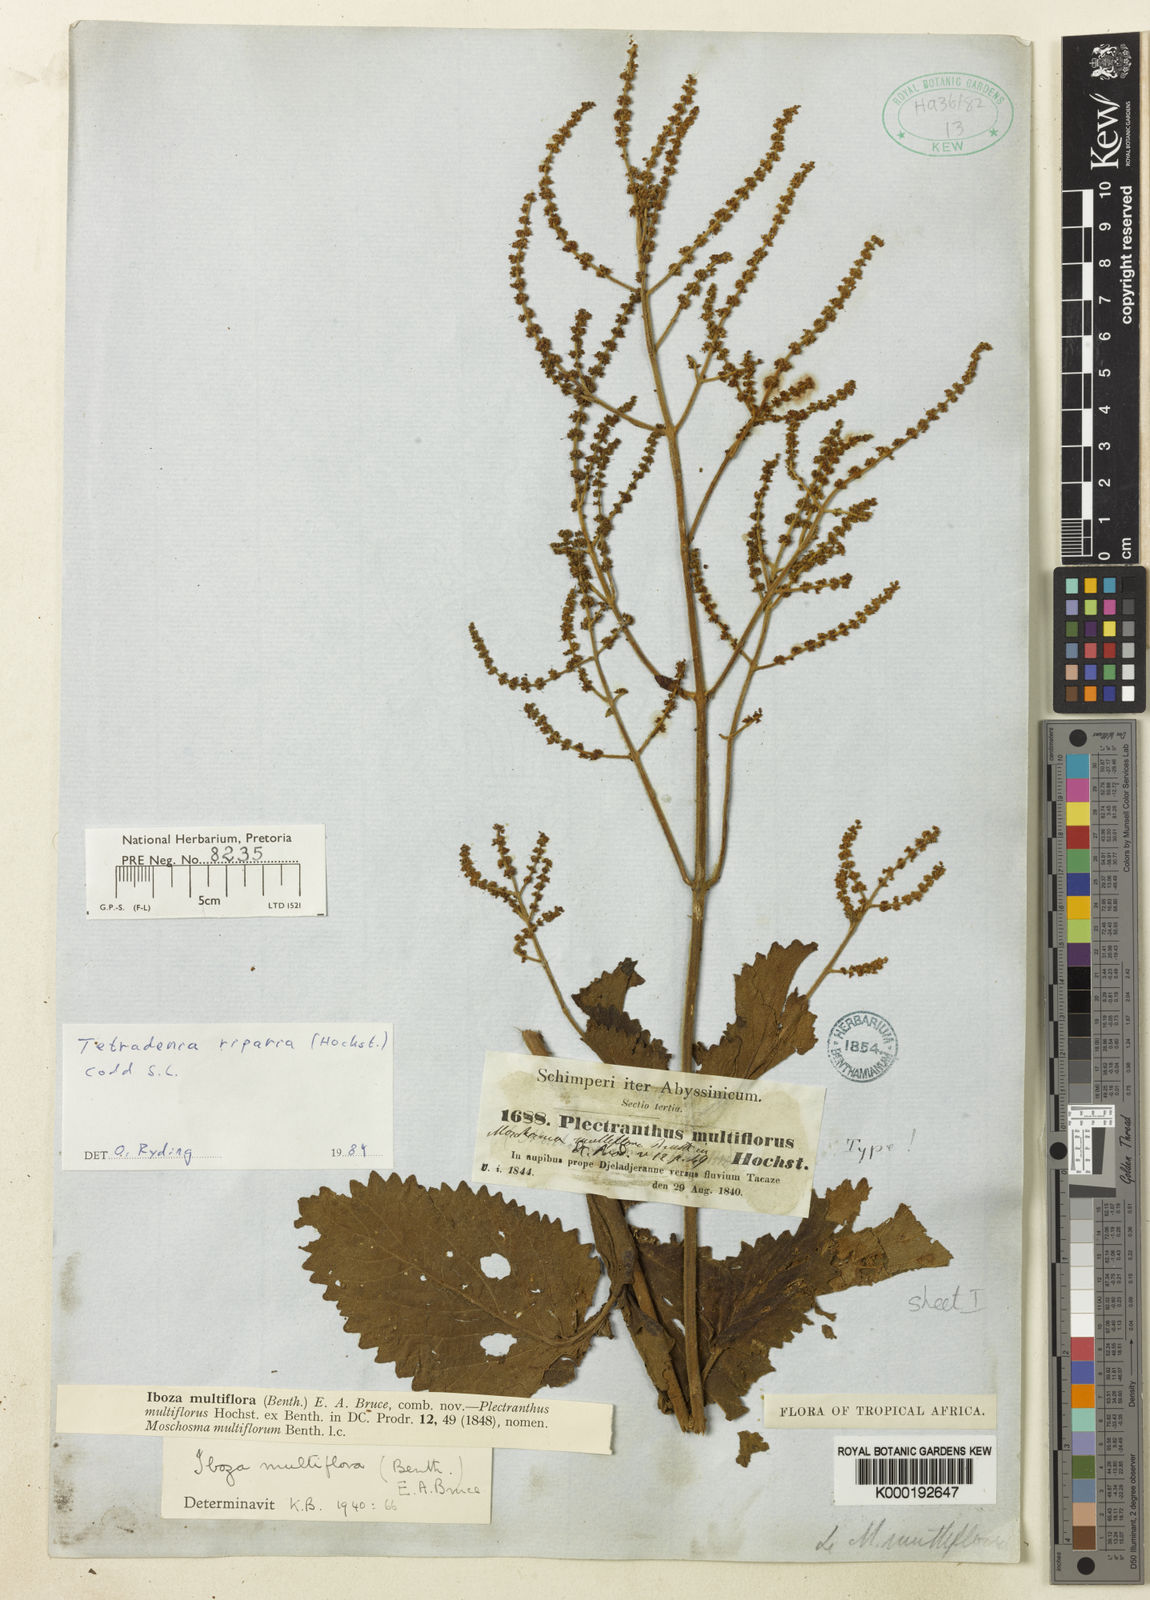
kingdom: Plantae
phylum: Tracheophyta
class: Magnoliopsida
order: Lamiales
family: Lamiaceae
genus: Tetradenia
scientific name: Tetradenia multiflora
